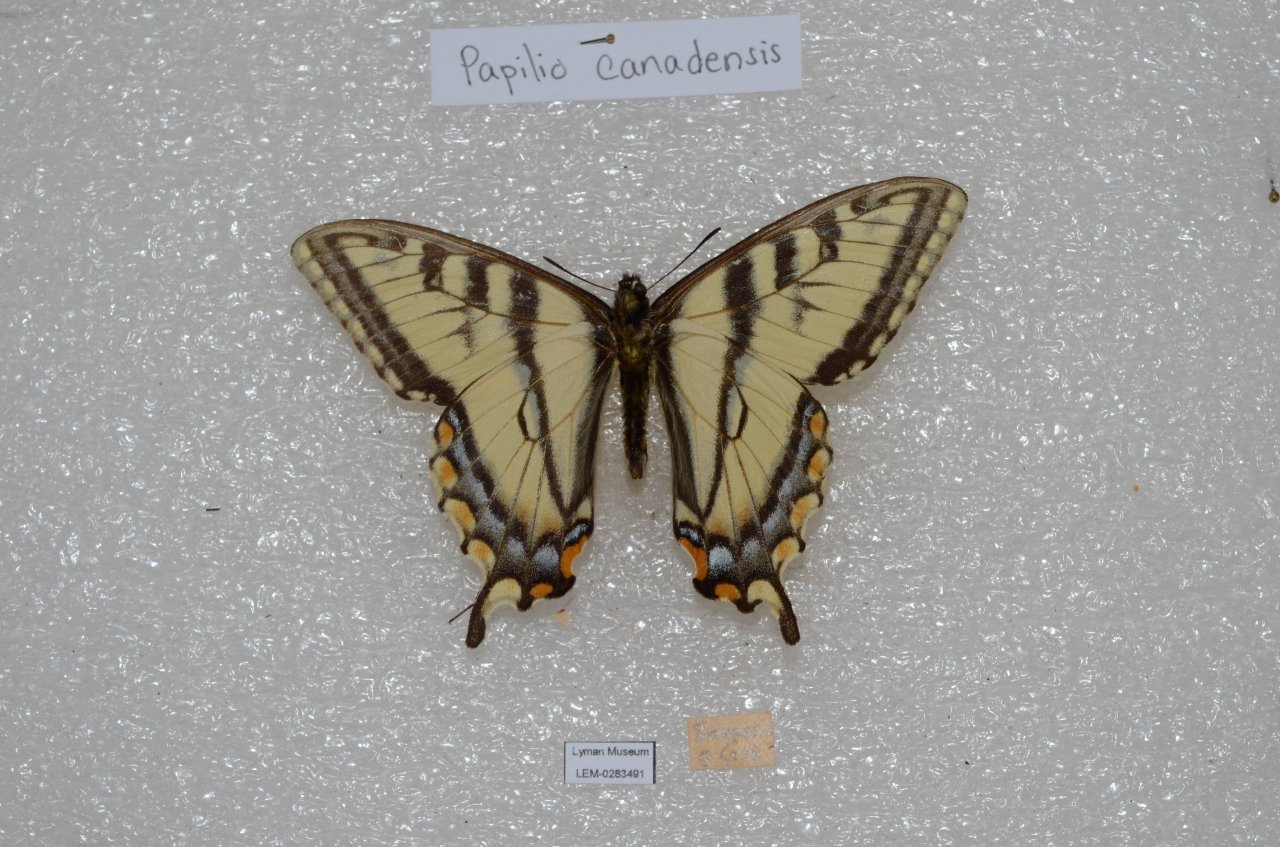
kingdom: Animalia
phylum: Arthropoda
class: Insecta
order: Lepidoptera
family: Papilionidae
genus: Pterourus
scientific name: Pterourus canadensis
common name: Canadian Tiger Swallowtail
